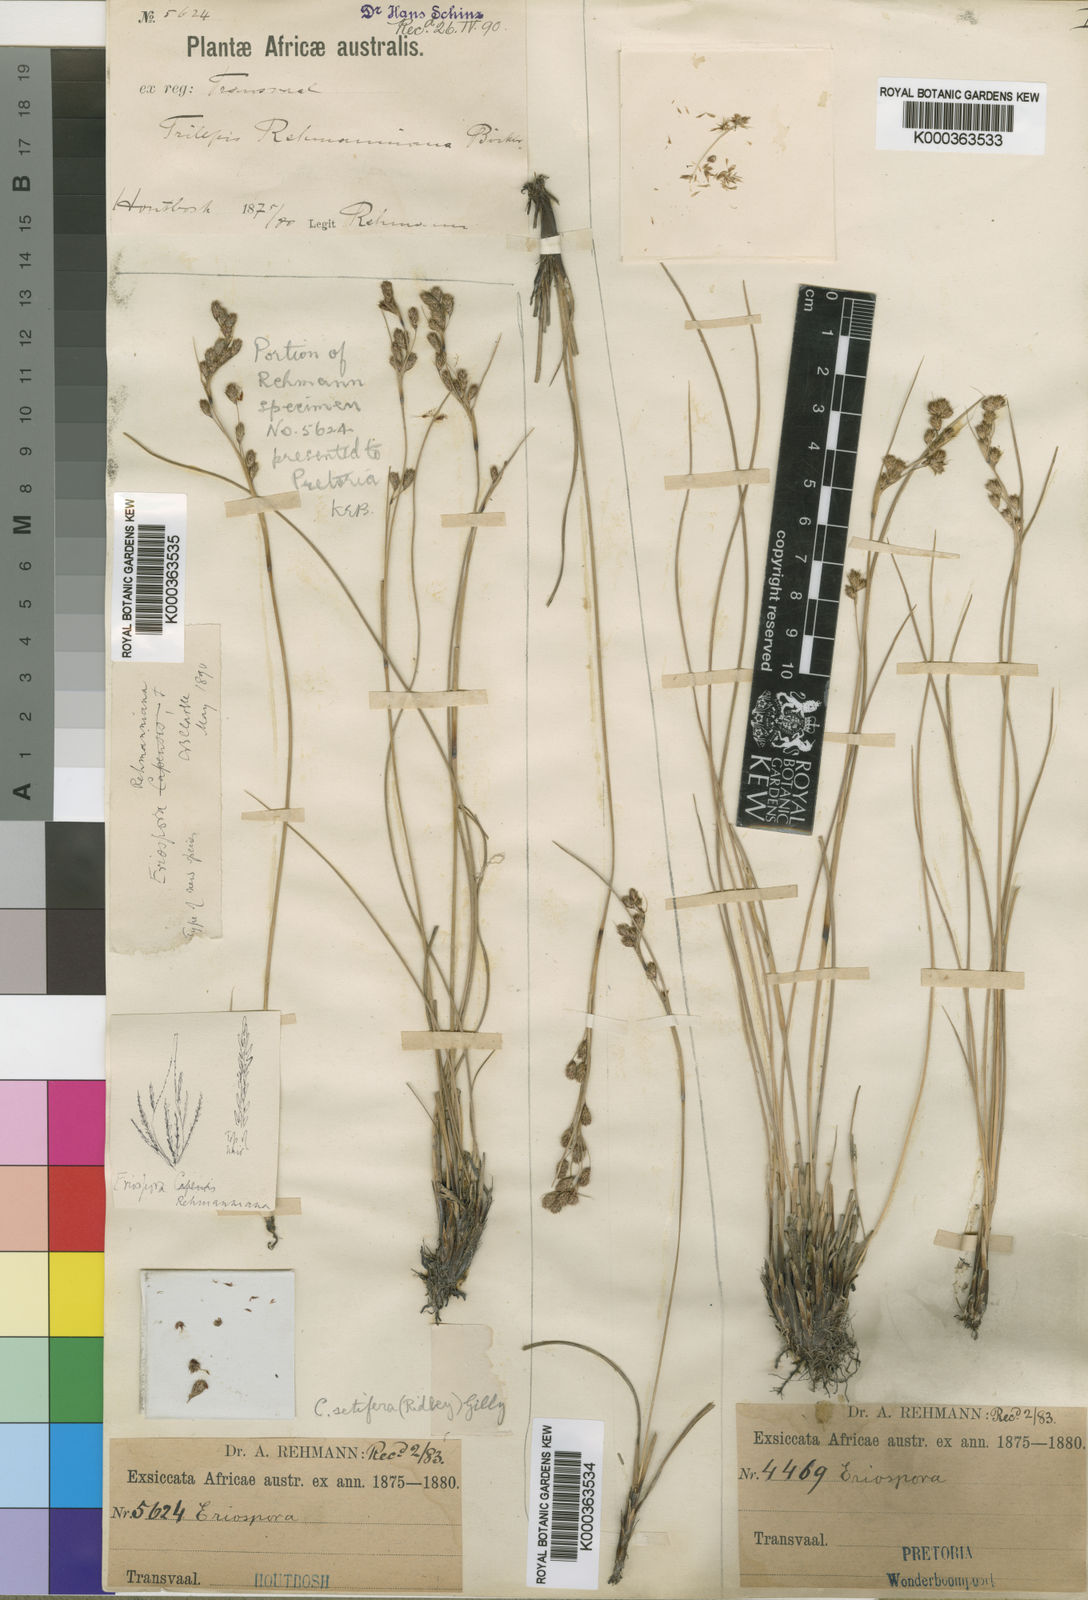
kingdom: Fungi
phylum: Ascomycota
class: Lecanoromycetes
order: Ostropales
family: Stictidaceae
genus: Eriospora
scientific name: Eriospora
